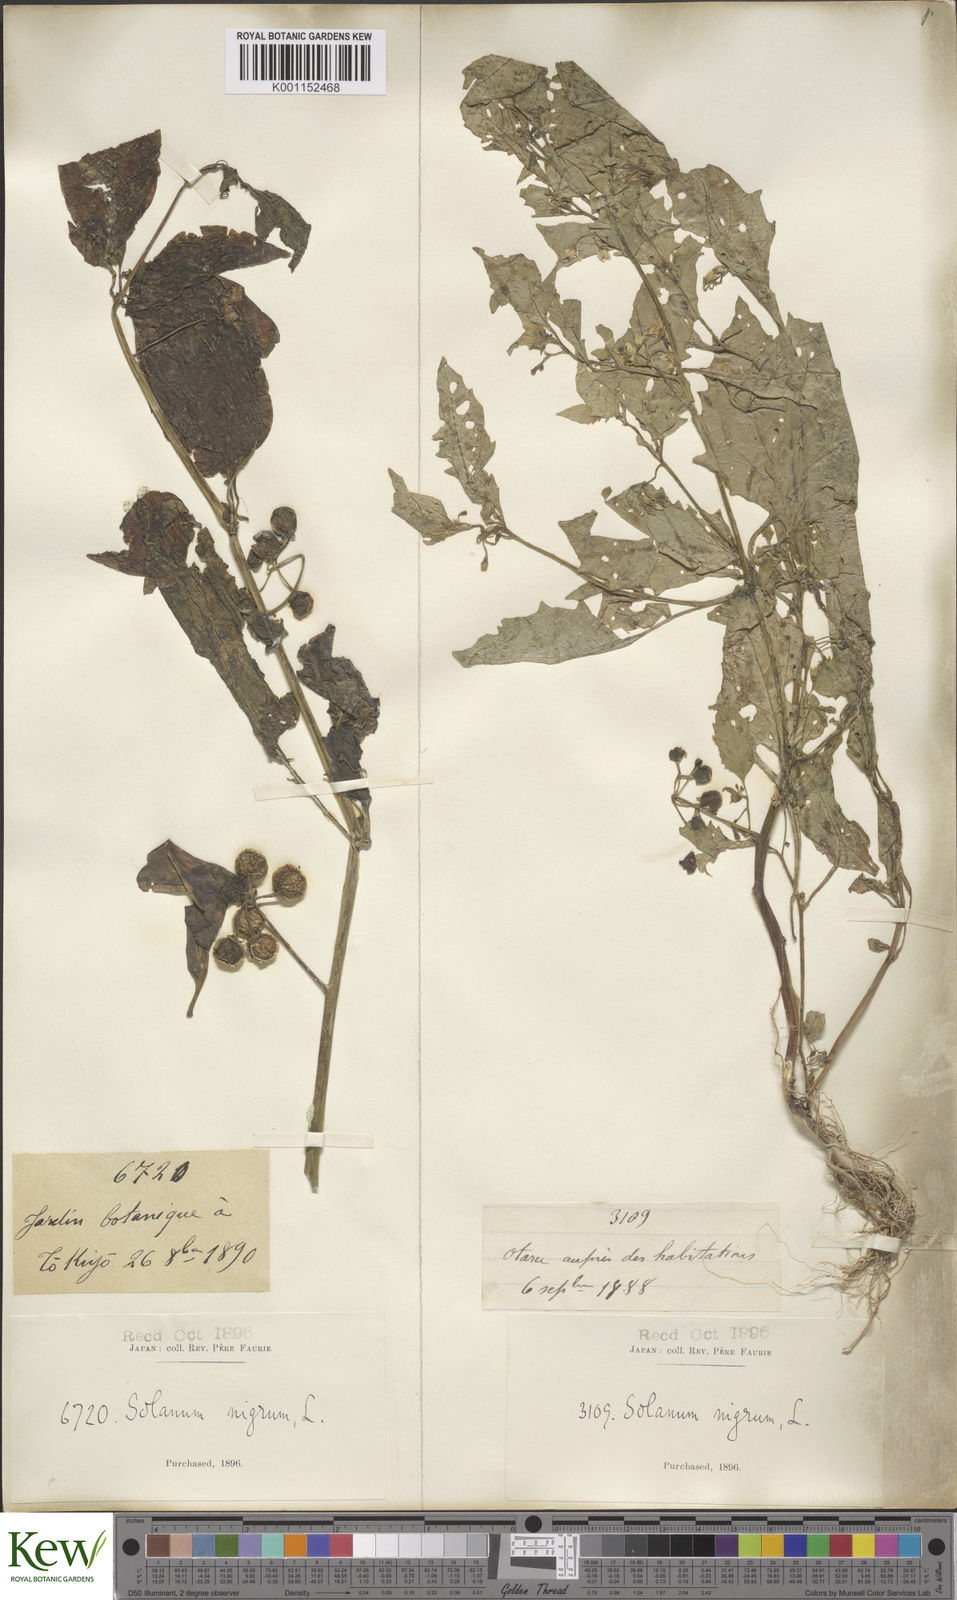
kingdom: Plantae
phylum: Tracheophyta
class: Magnoliopsida
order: Solanales
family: Solanaceae
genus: Solanum
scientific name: Solanum
